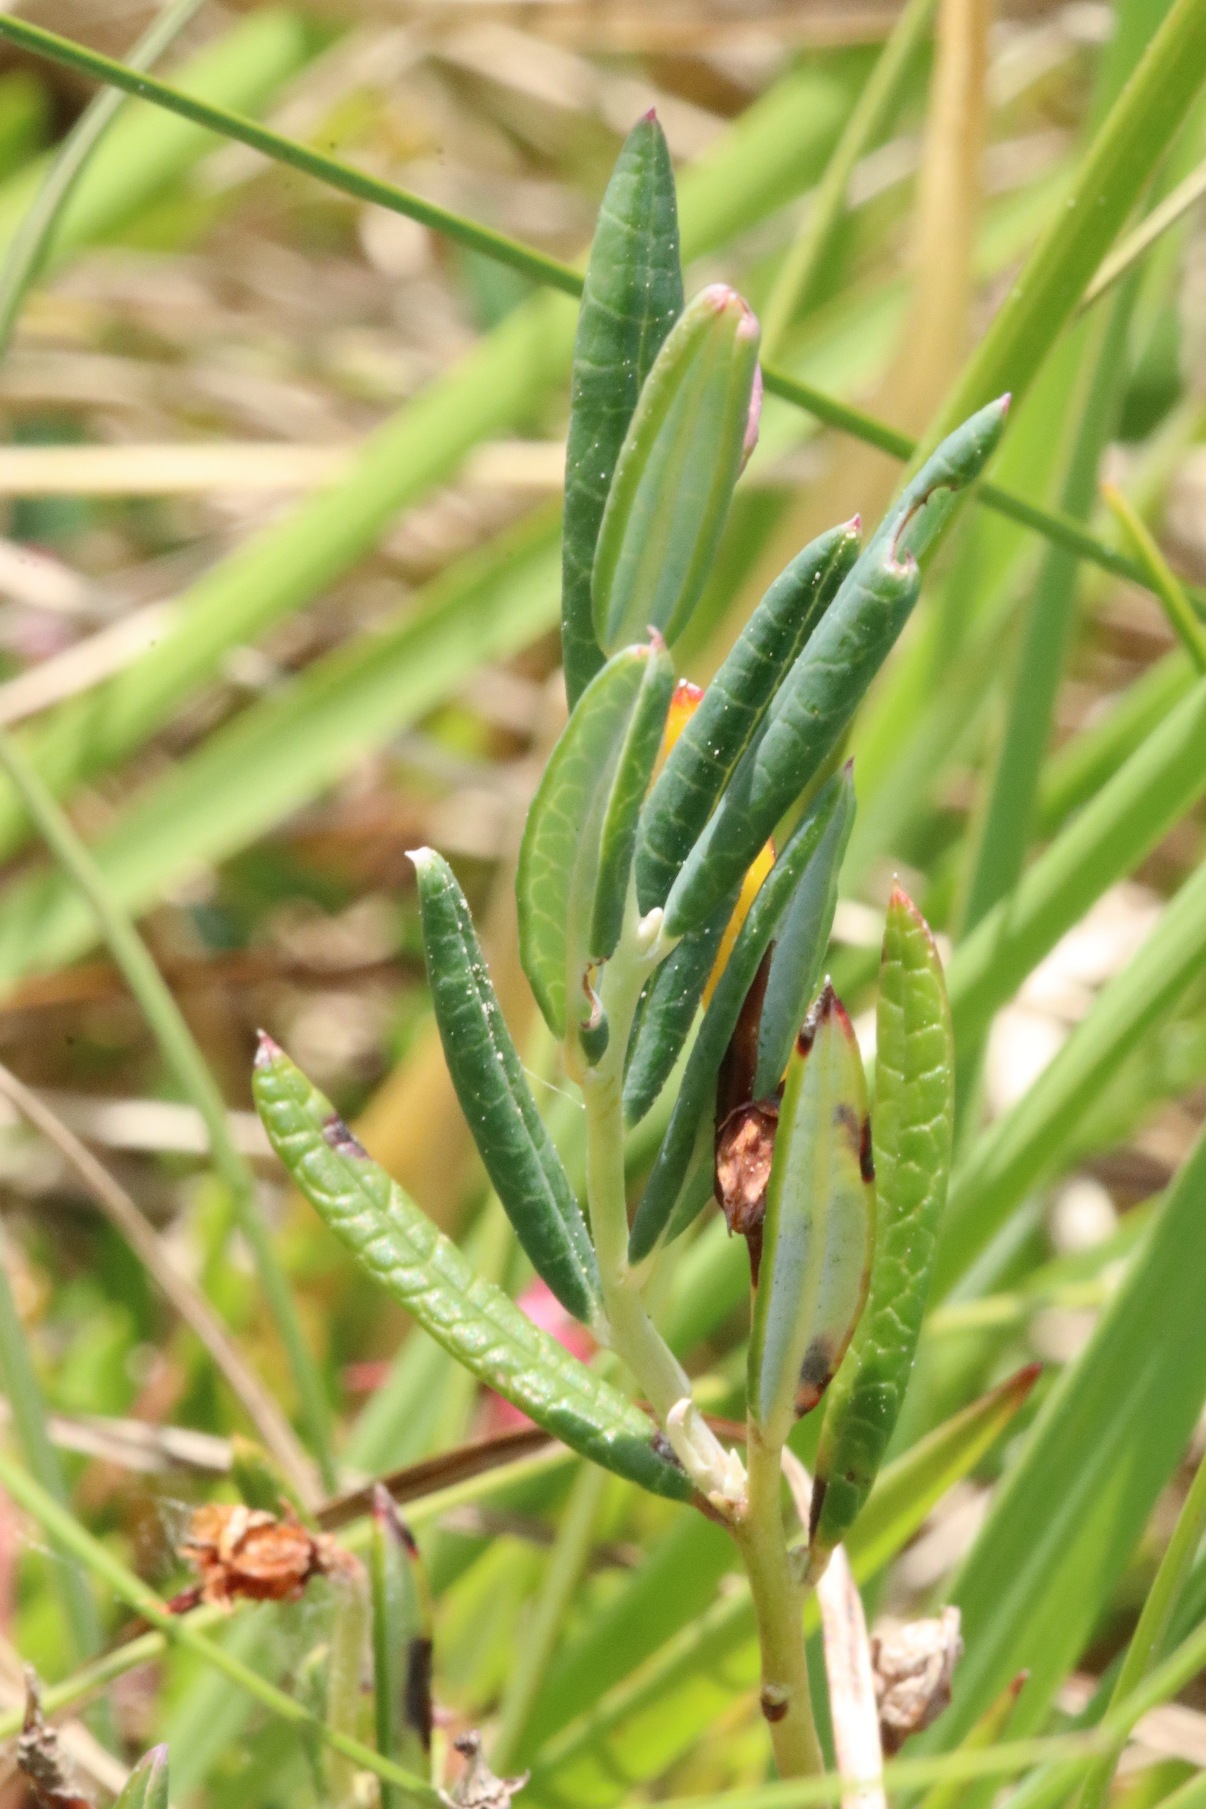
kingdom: Plantae
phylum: Tracheophyta
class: Magnoliopsida
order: Ericales
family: Ericaceae
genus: Andromeda
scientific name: Andromeda polifolia
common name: Rosmarinlyng
